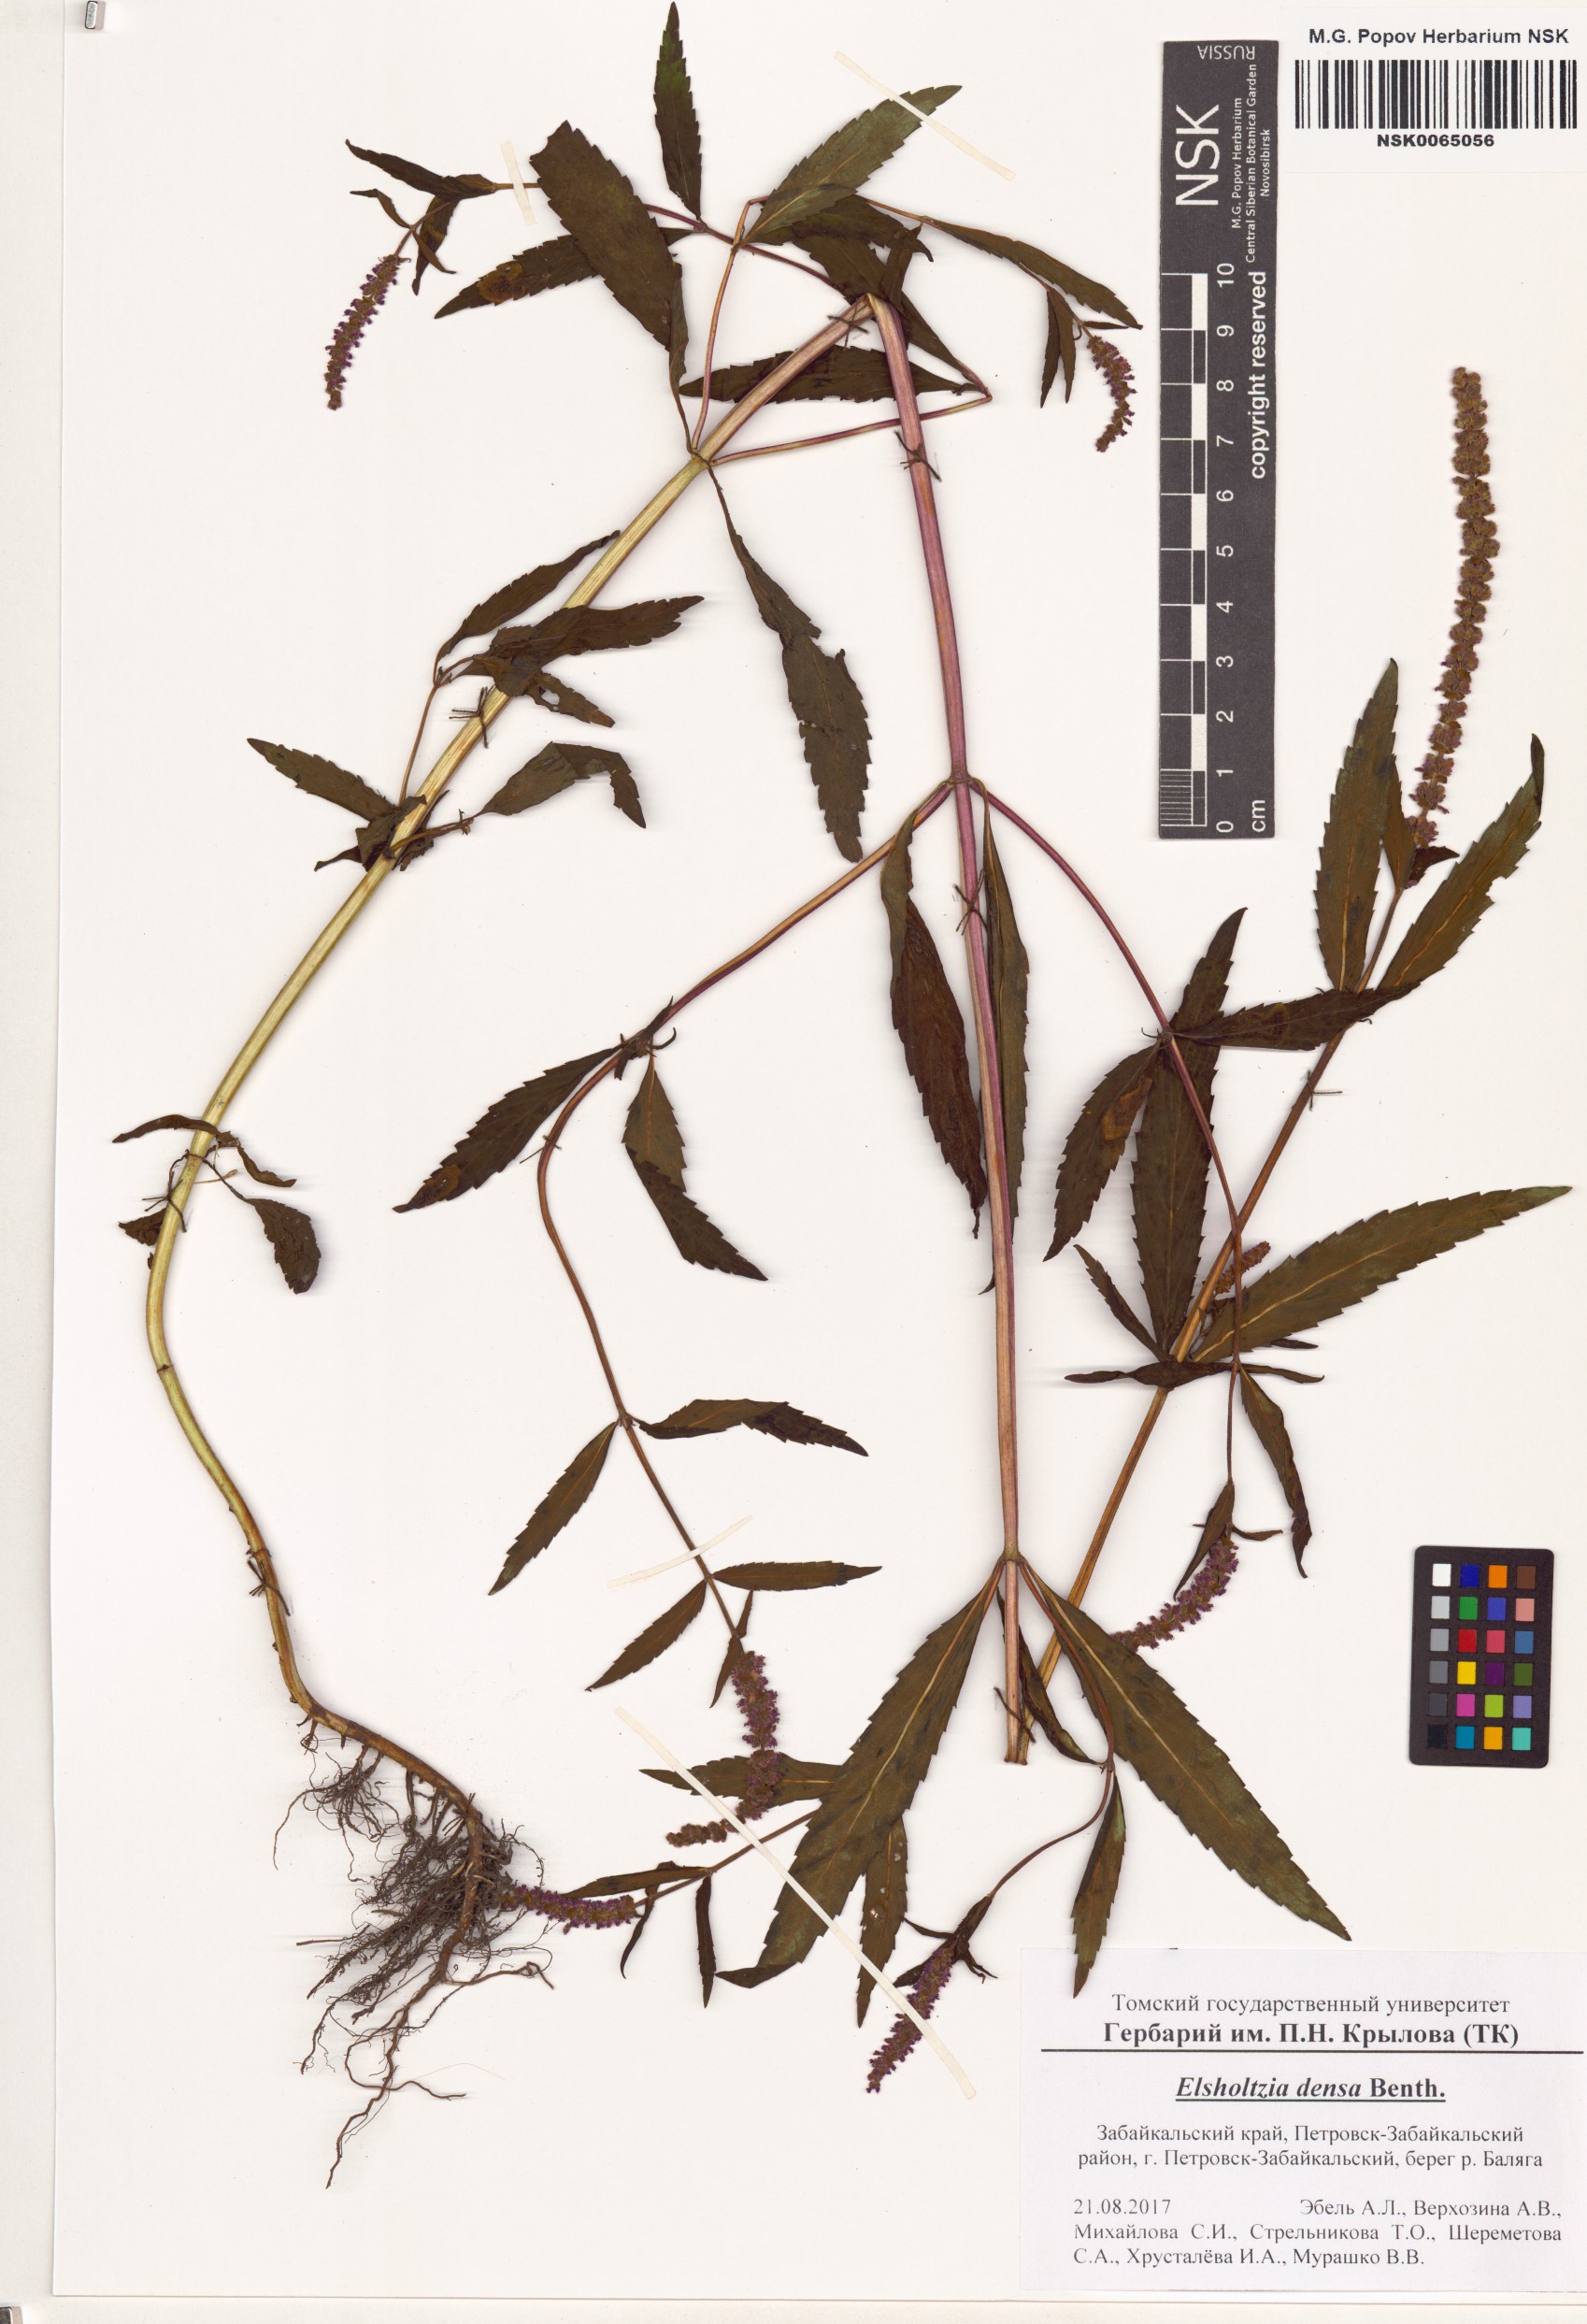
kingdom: Plantae
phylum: Tracheophyta
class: Magnoliopsida
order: Lamiales
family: Lamiaceae
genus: Elsholtzia
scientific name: Elsholtzia densa
